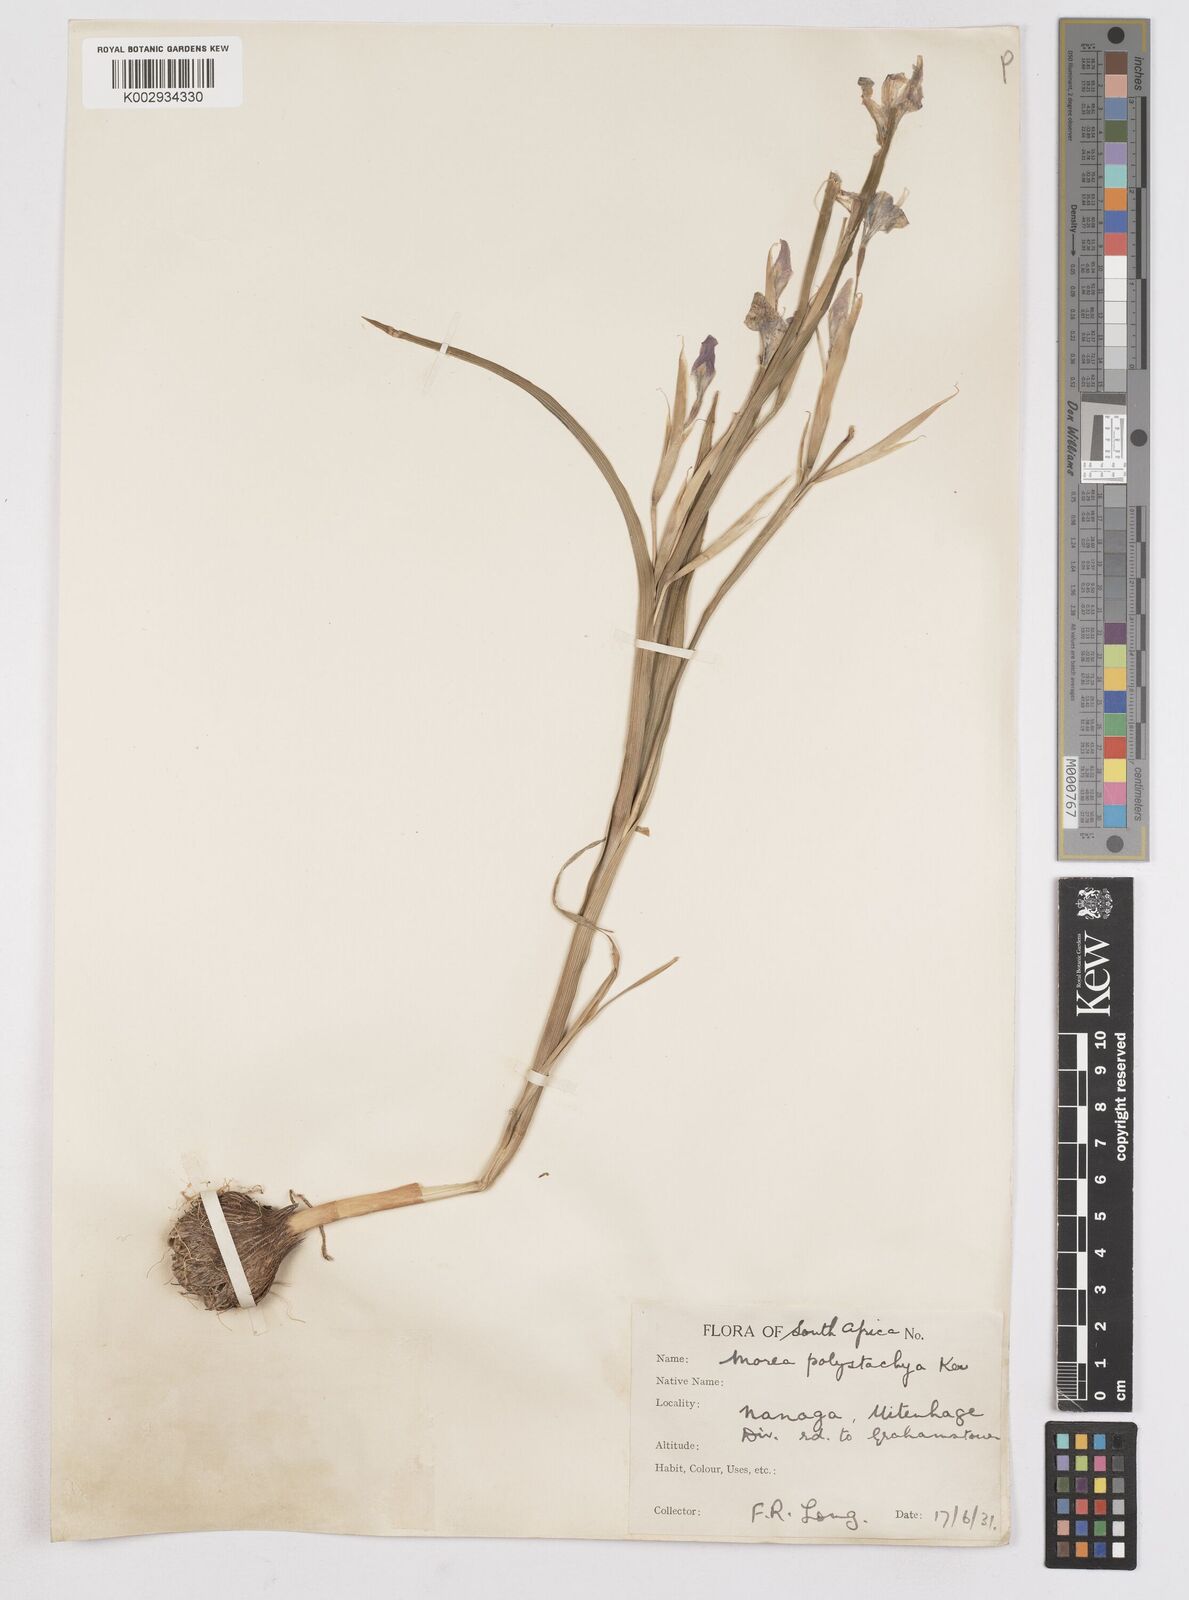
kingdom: Plantae
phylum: Tracheophyta
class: Liliopsida
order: Asparagales
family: Iridaceae
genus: Moraea
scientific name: Moraea polystachya
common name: Blue-tulip
